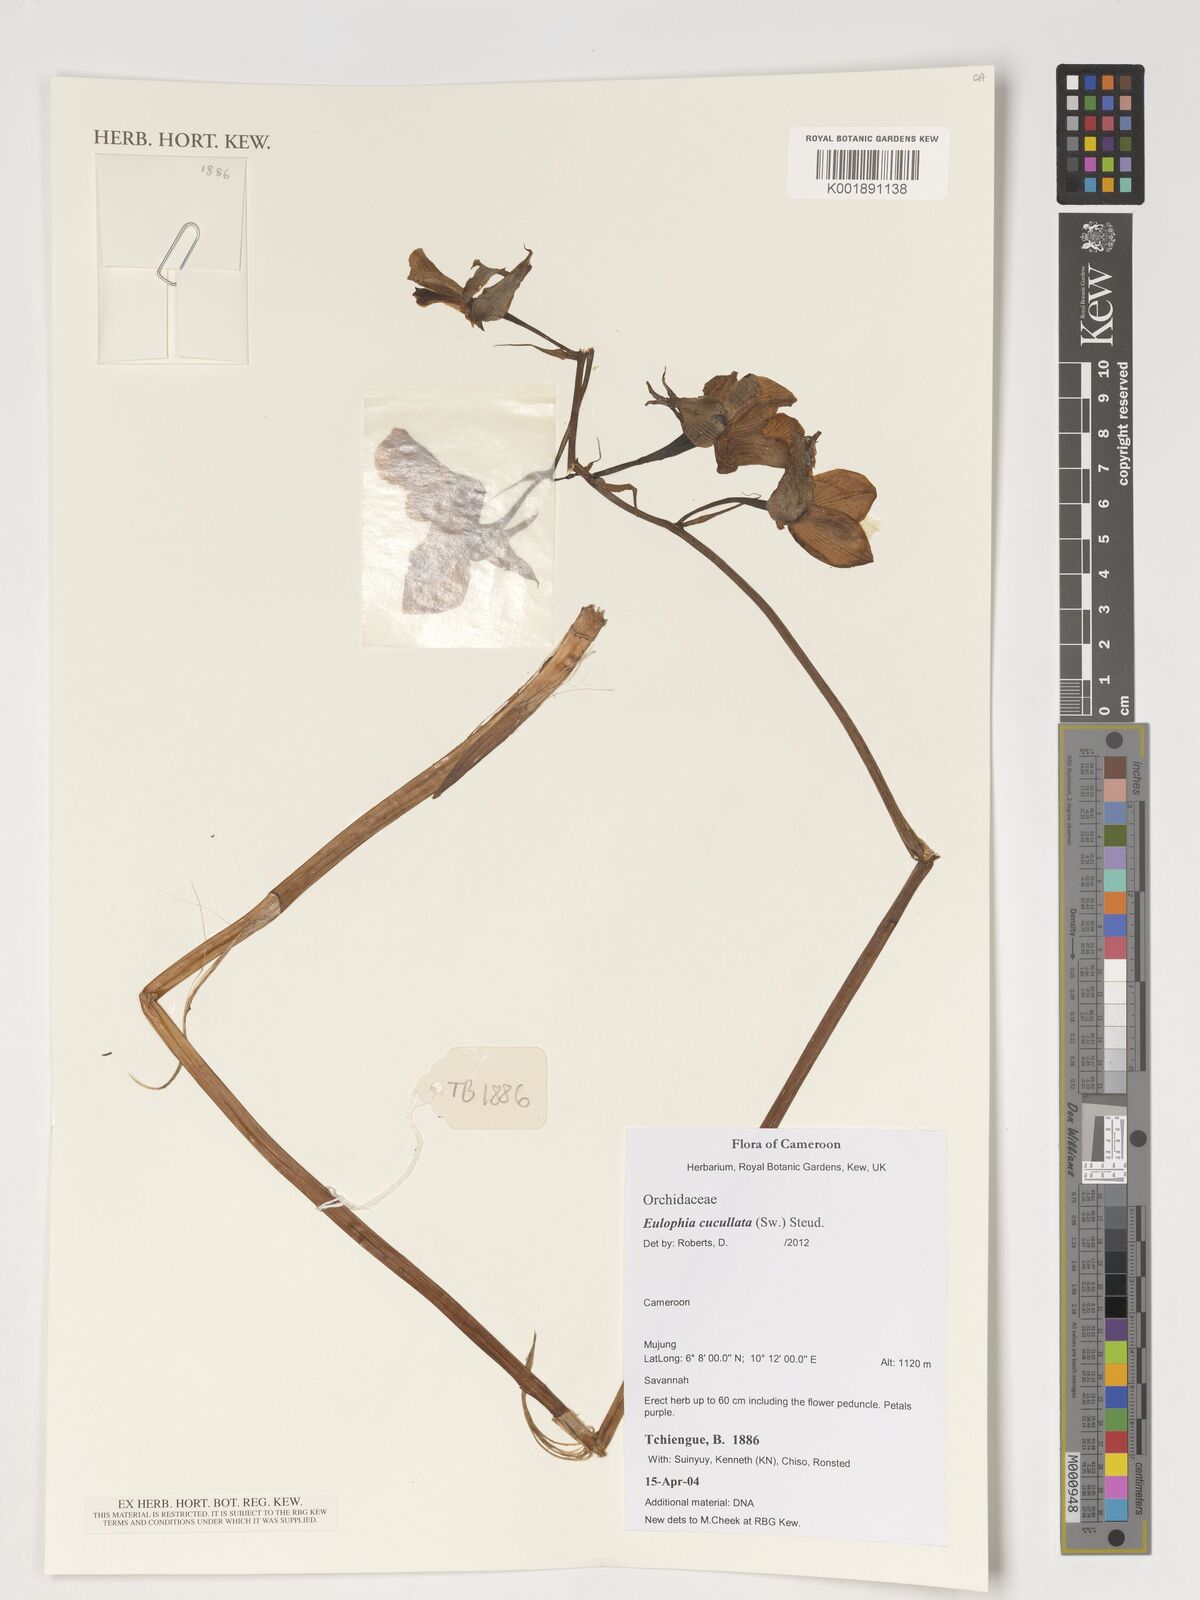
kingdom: Plantae
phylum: Tracheophyta
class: Liliopsida
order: Asparagales
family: Orchidaceae
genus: Eulophia
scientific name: Eulophia cucullata
